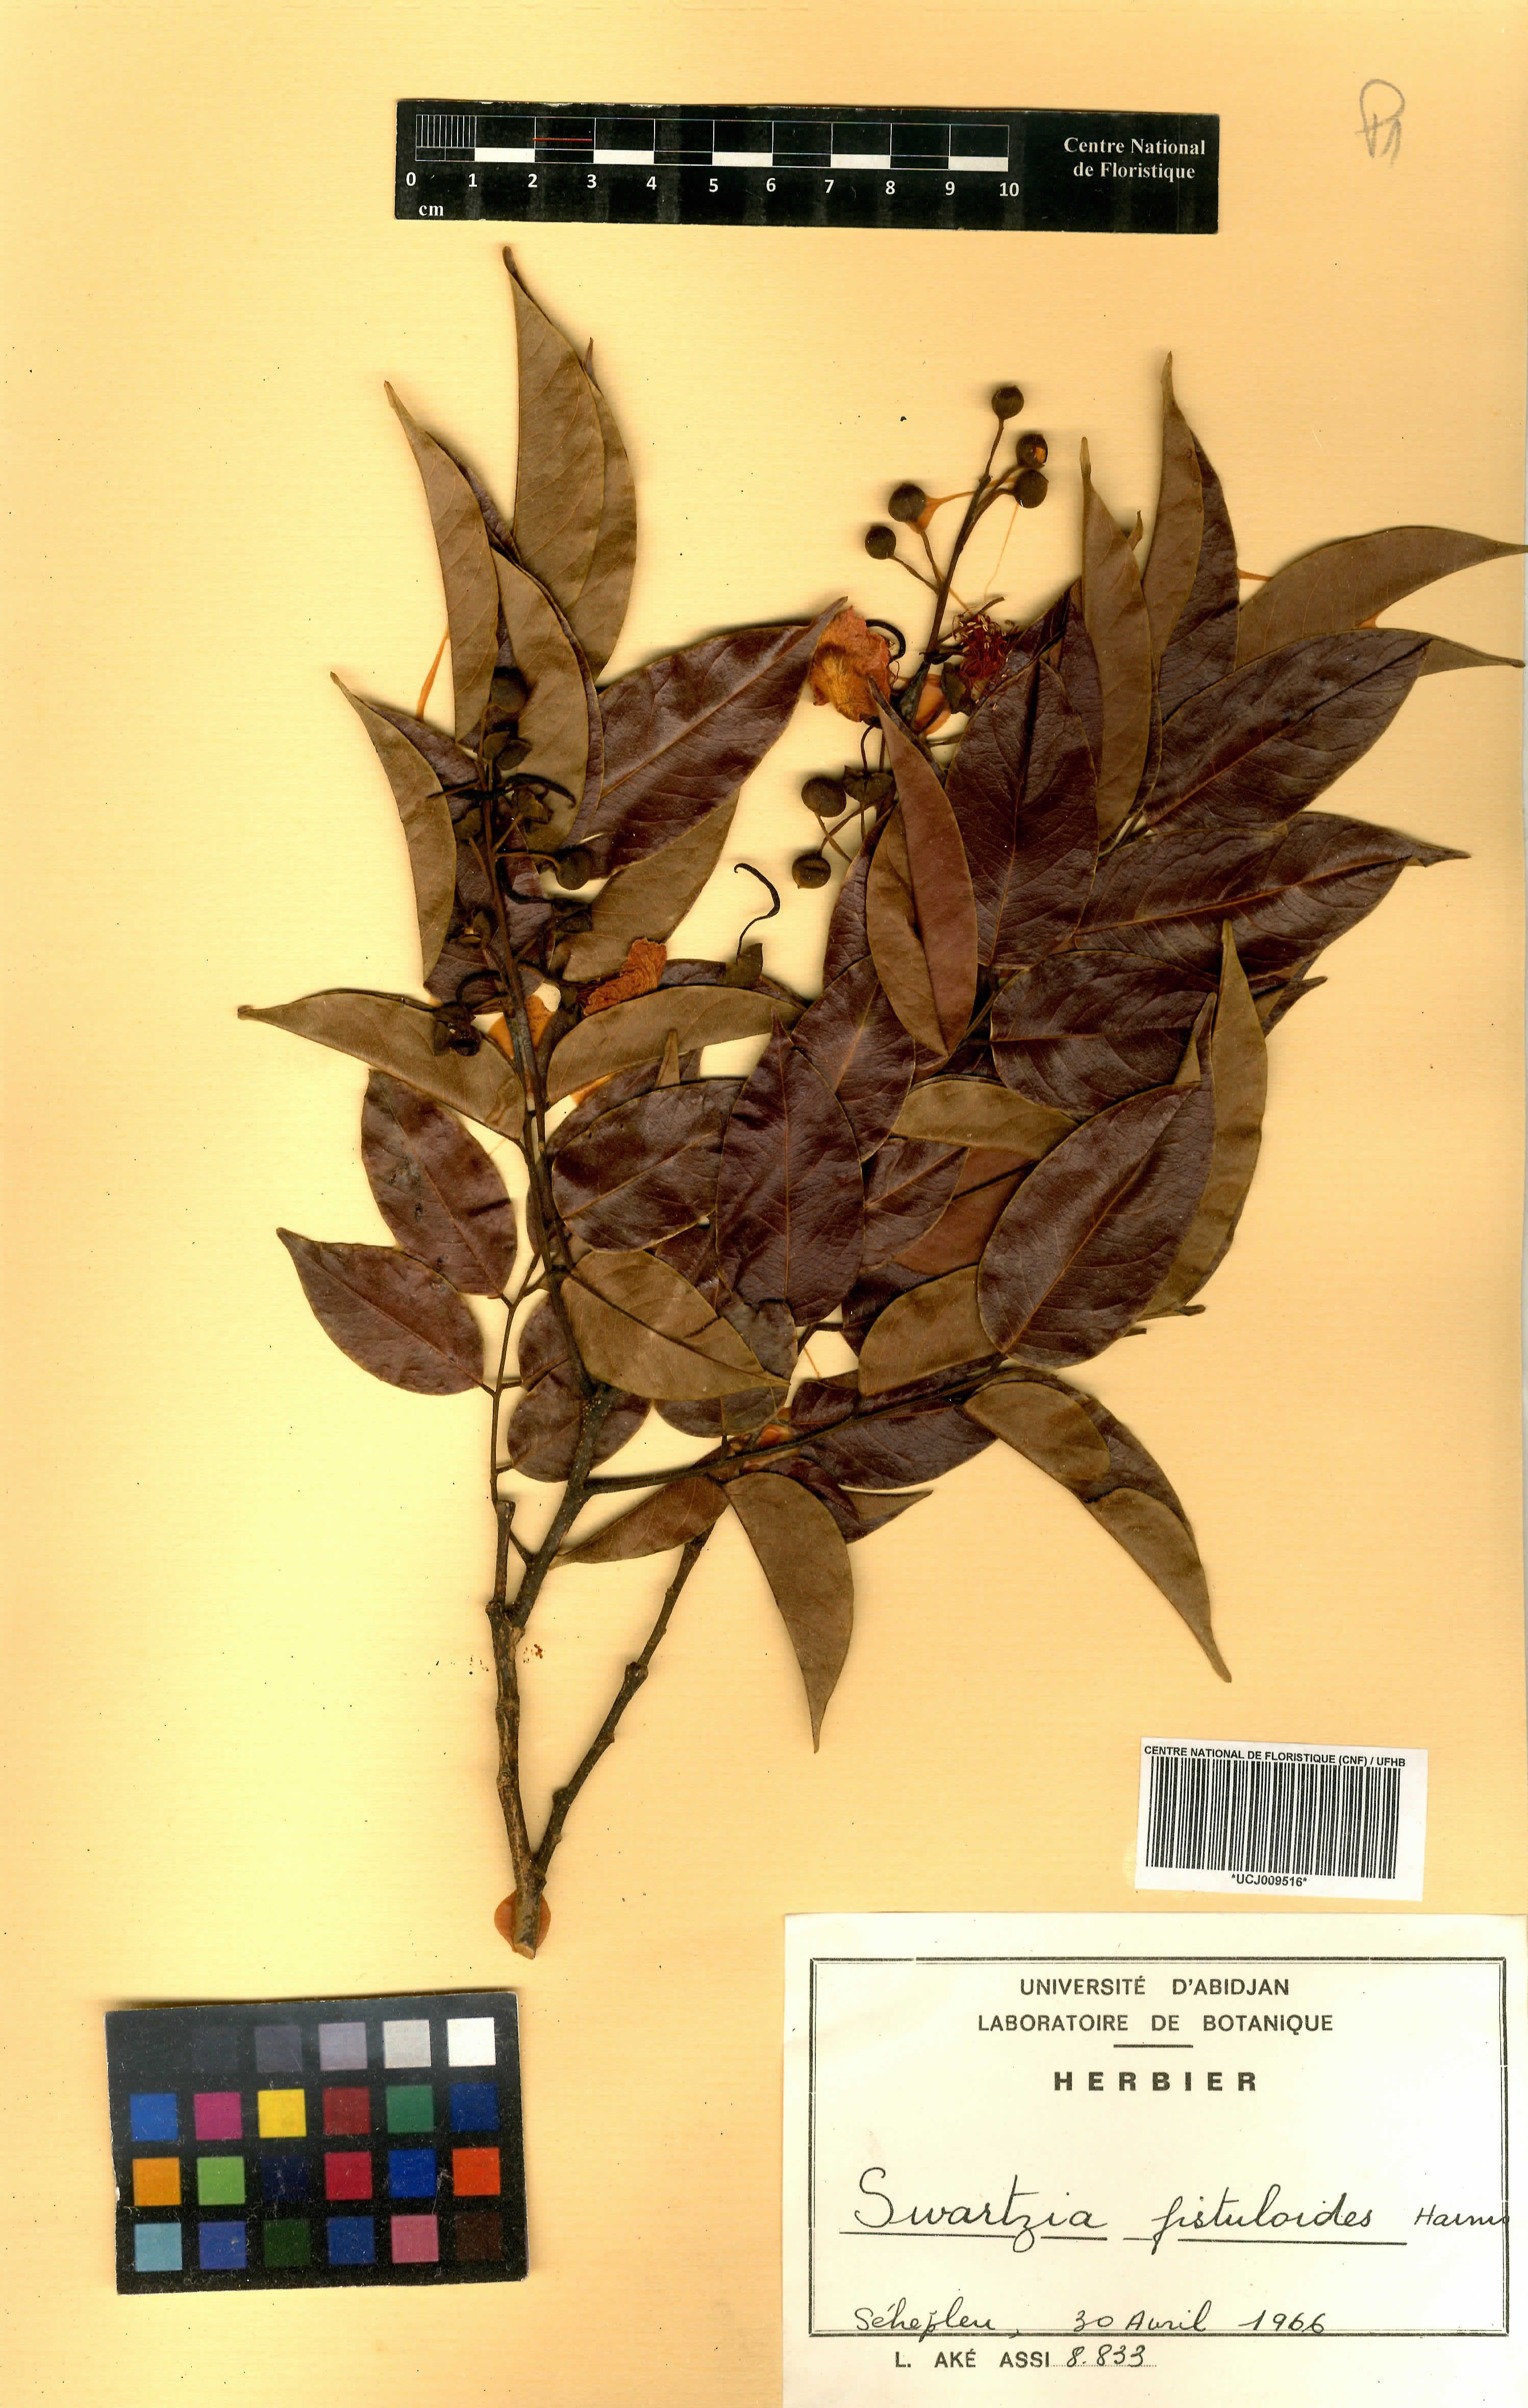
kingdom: Plantae
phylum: Tracheophyta
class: Magnoliopsida
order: Fabales
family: Fabaceae
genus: Bobgunnia
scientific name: Bobgunnia fistuloides
